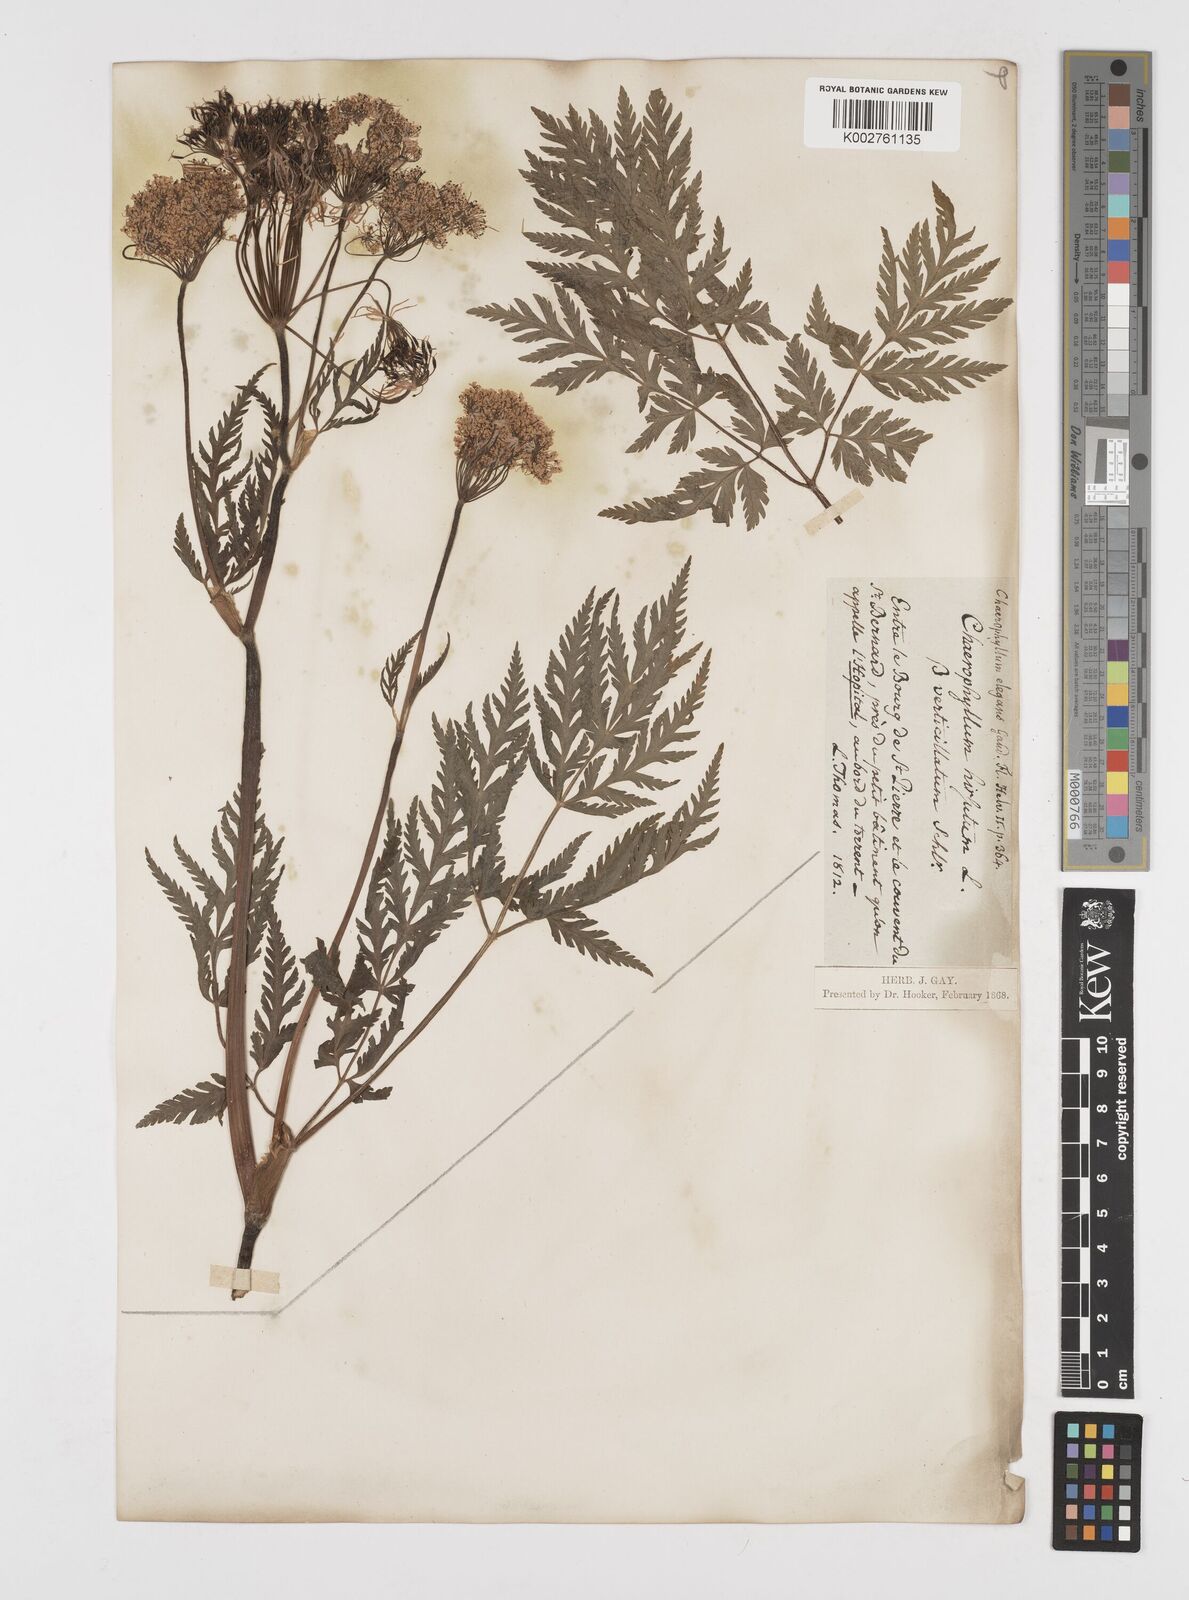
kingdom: Plantae
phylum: Tracheophyta
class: Magnoliopsida
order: Apiales
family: Apiaceae
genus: Chaerophyllum
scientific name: Chaerophyllum hirsutum
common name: Hairy chervil
